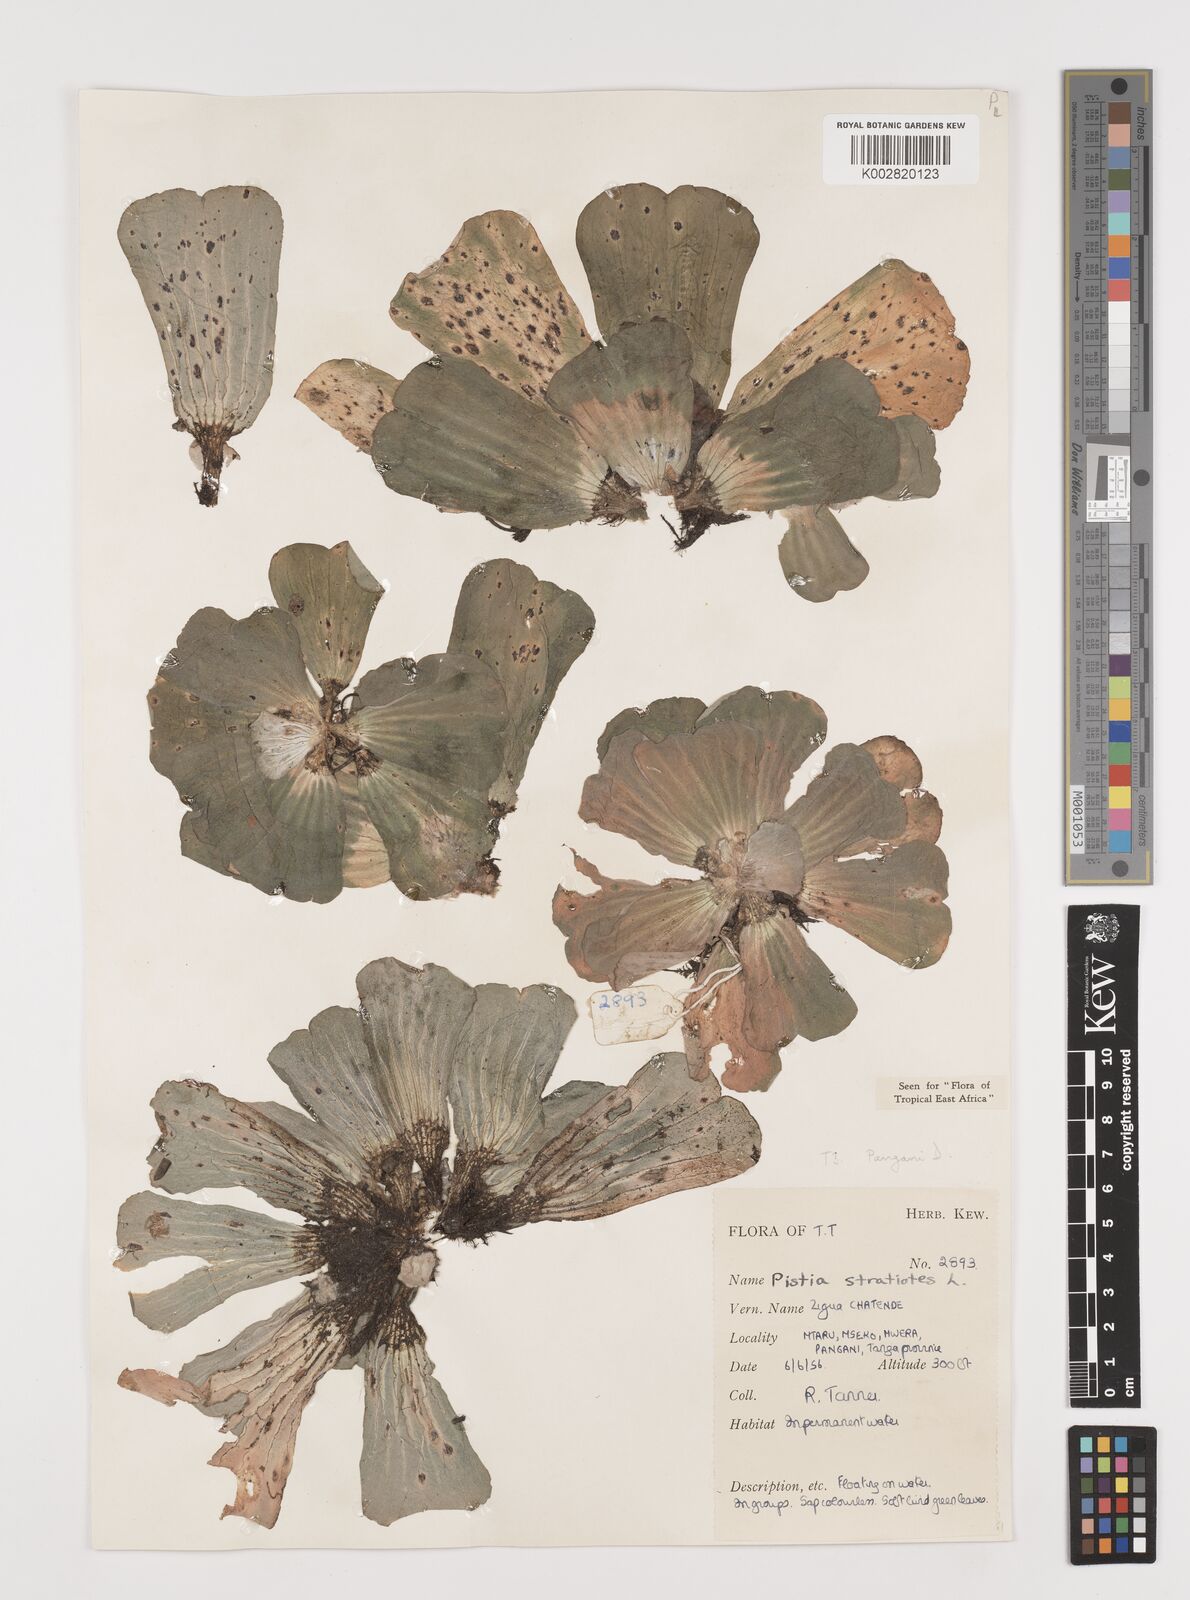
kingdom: Plantae
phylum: Tracheophyta
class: Liliopsida
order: Alismatales
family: Araceae
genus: Pistia
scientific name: Pistia stratiotes
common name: Water lettuce
